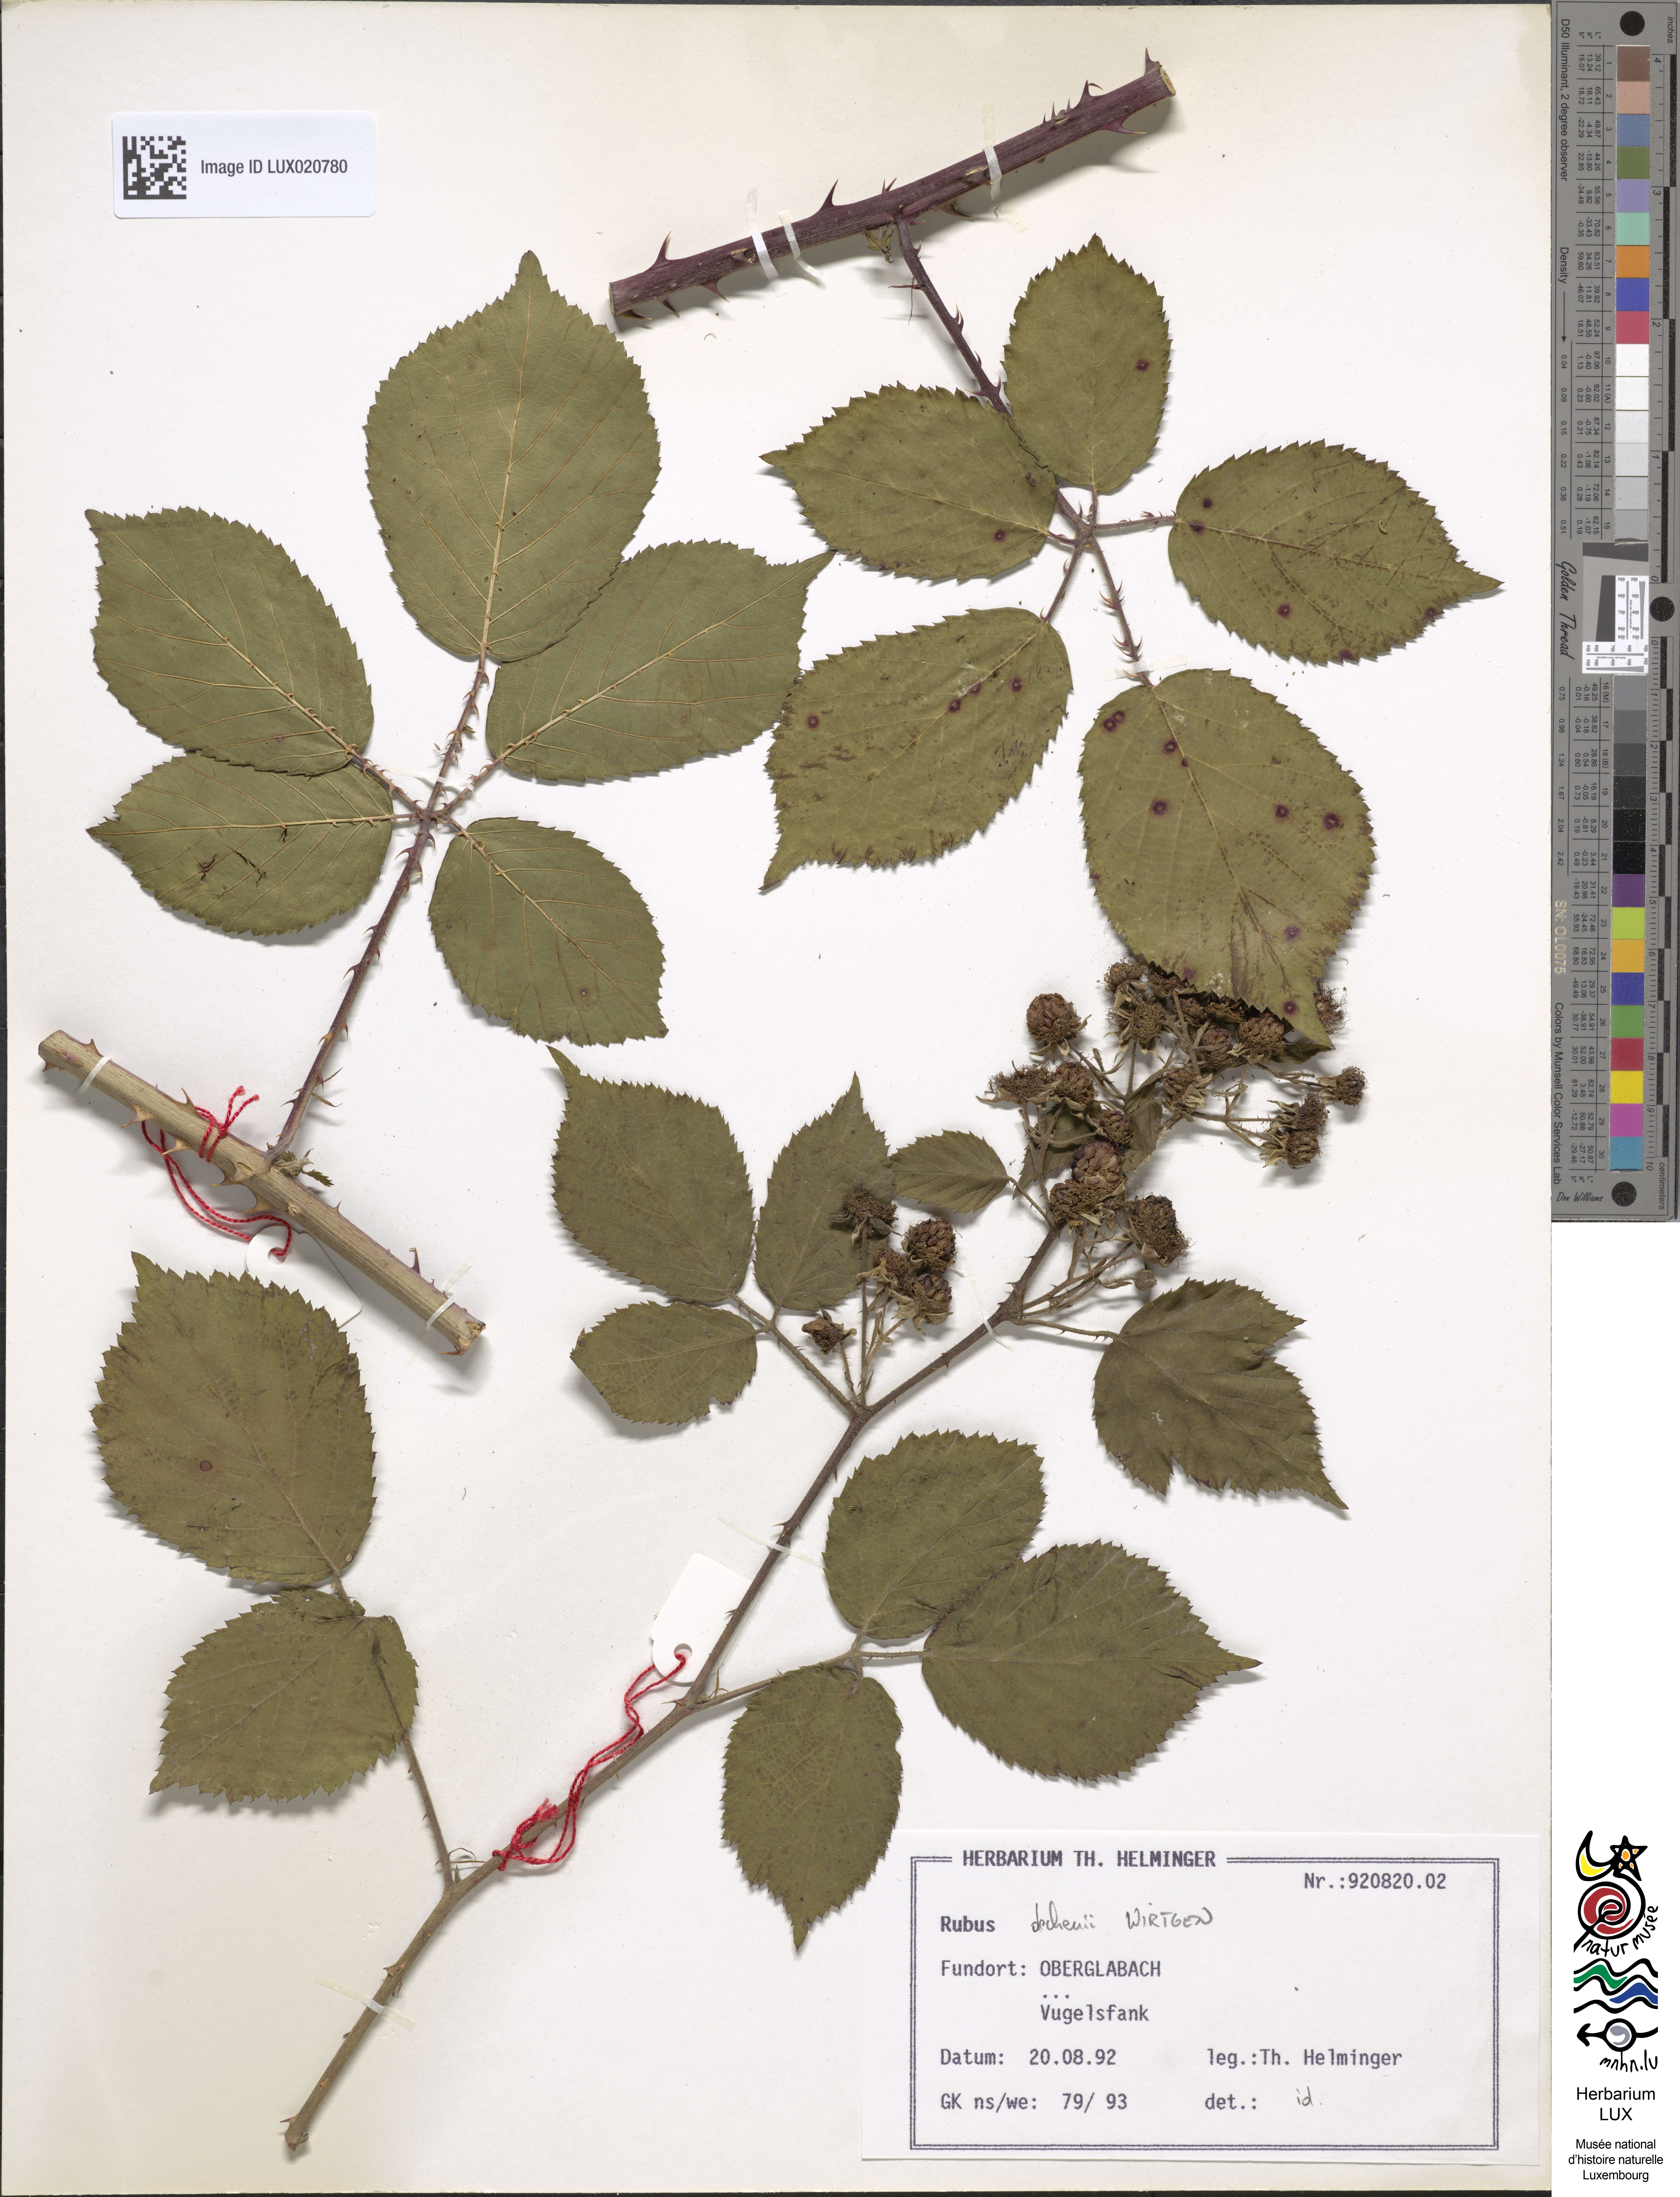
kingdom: Plantae
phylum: Tracheophyta
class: Magnoliopsida
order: Rosales
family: Rosaceae
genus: Rubus
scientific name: Rubus
